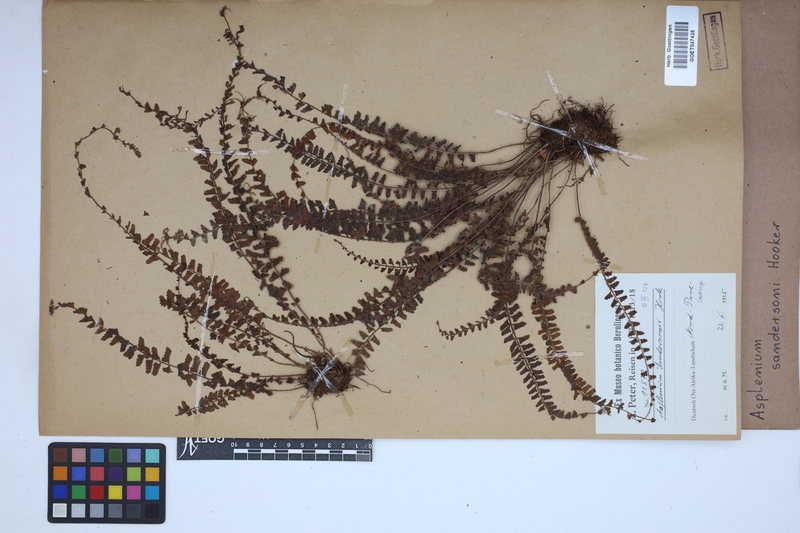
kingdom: Plantae
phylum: Tracheophyta
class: Polypodiopsida
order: Polypodiales
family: Aspleniaceae
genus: Asplenium
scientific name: Asplenium sandersonii
